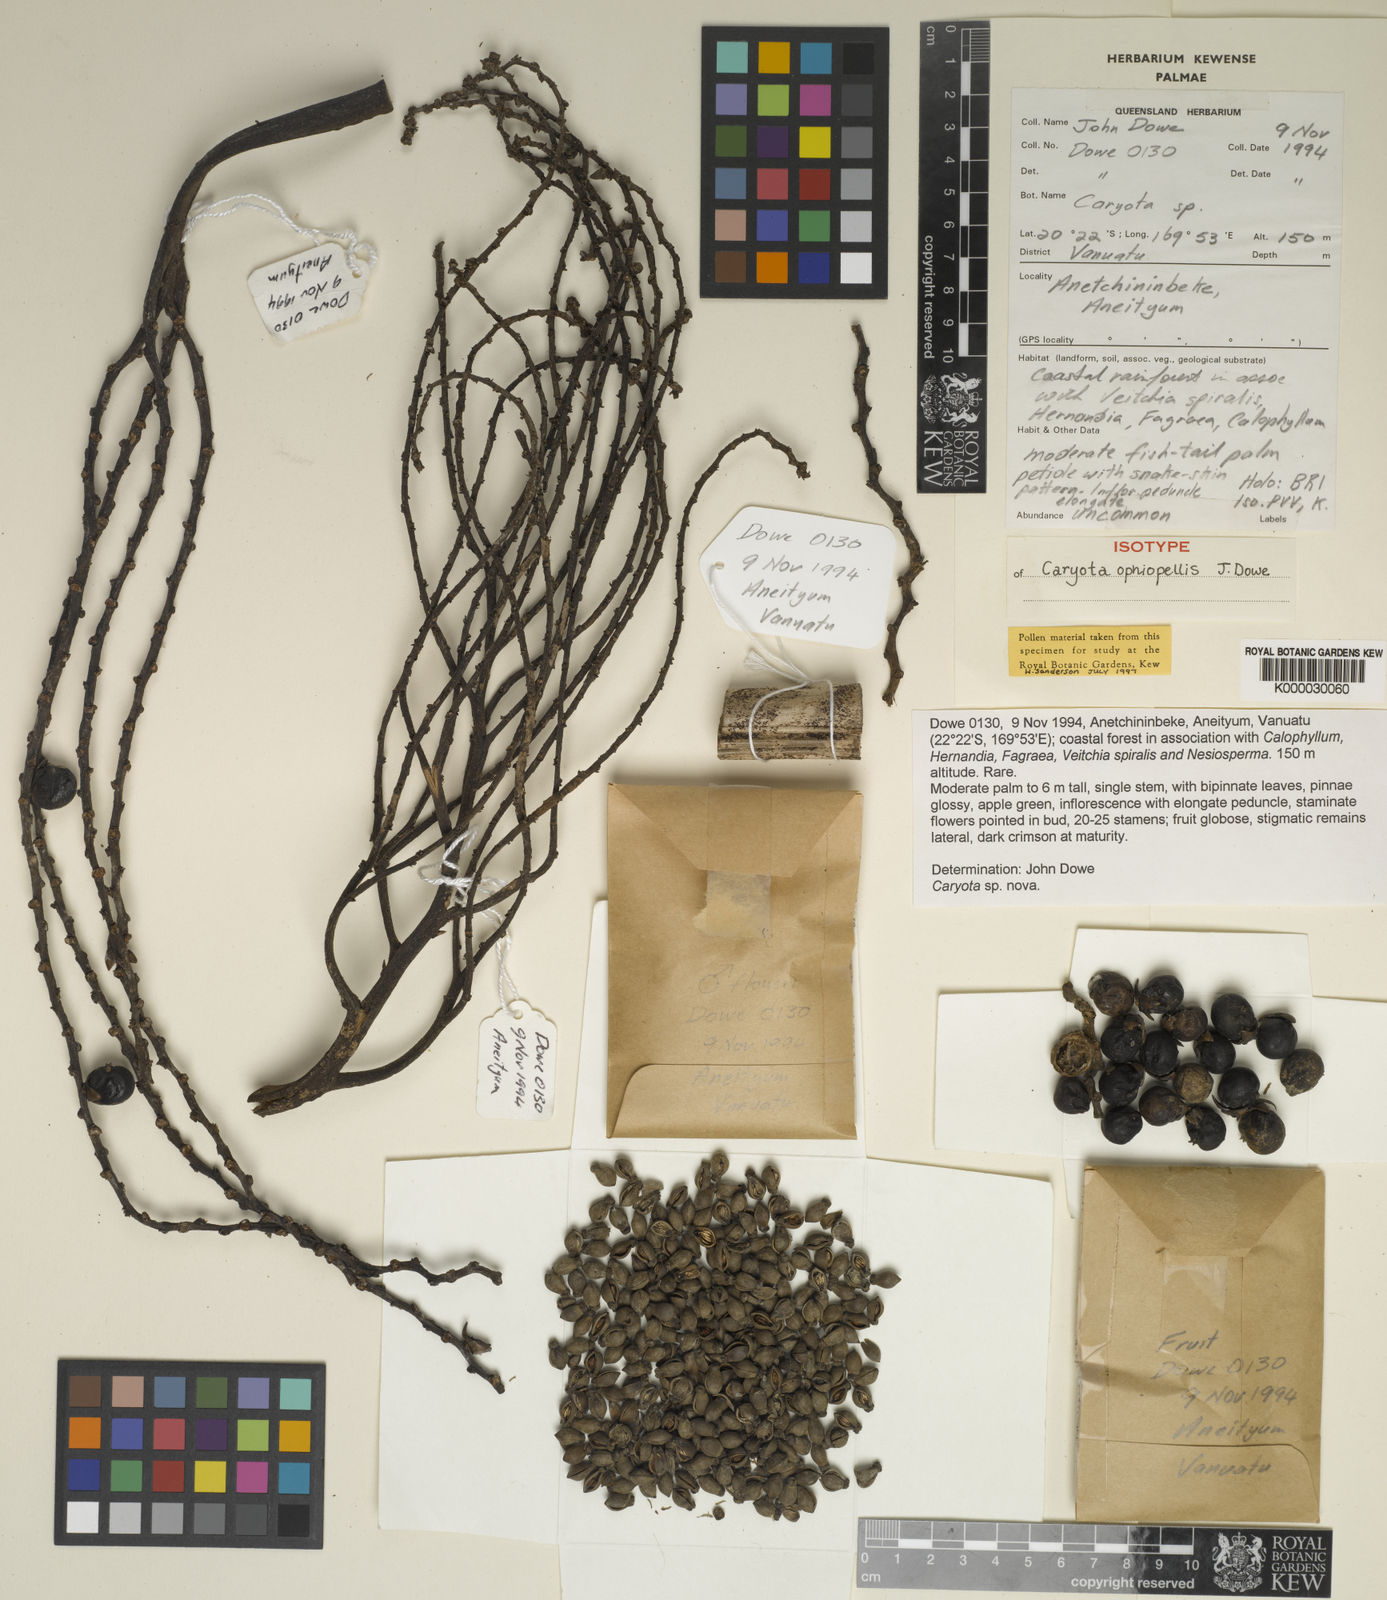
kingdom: Plantae
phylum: Tracheophyta
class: Liliopsida
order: Arecales
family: Arecaceae
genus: Caryota
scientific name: Caryota ophiopellis
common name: Snake palm
